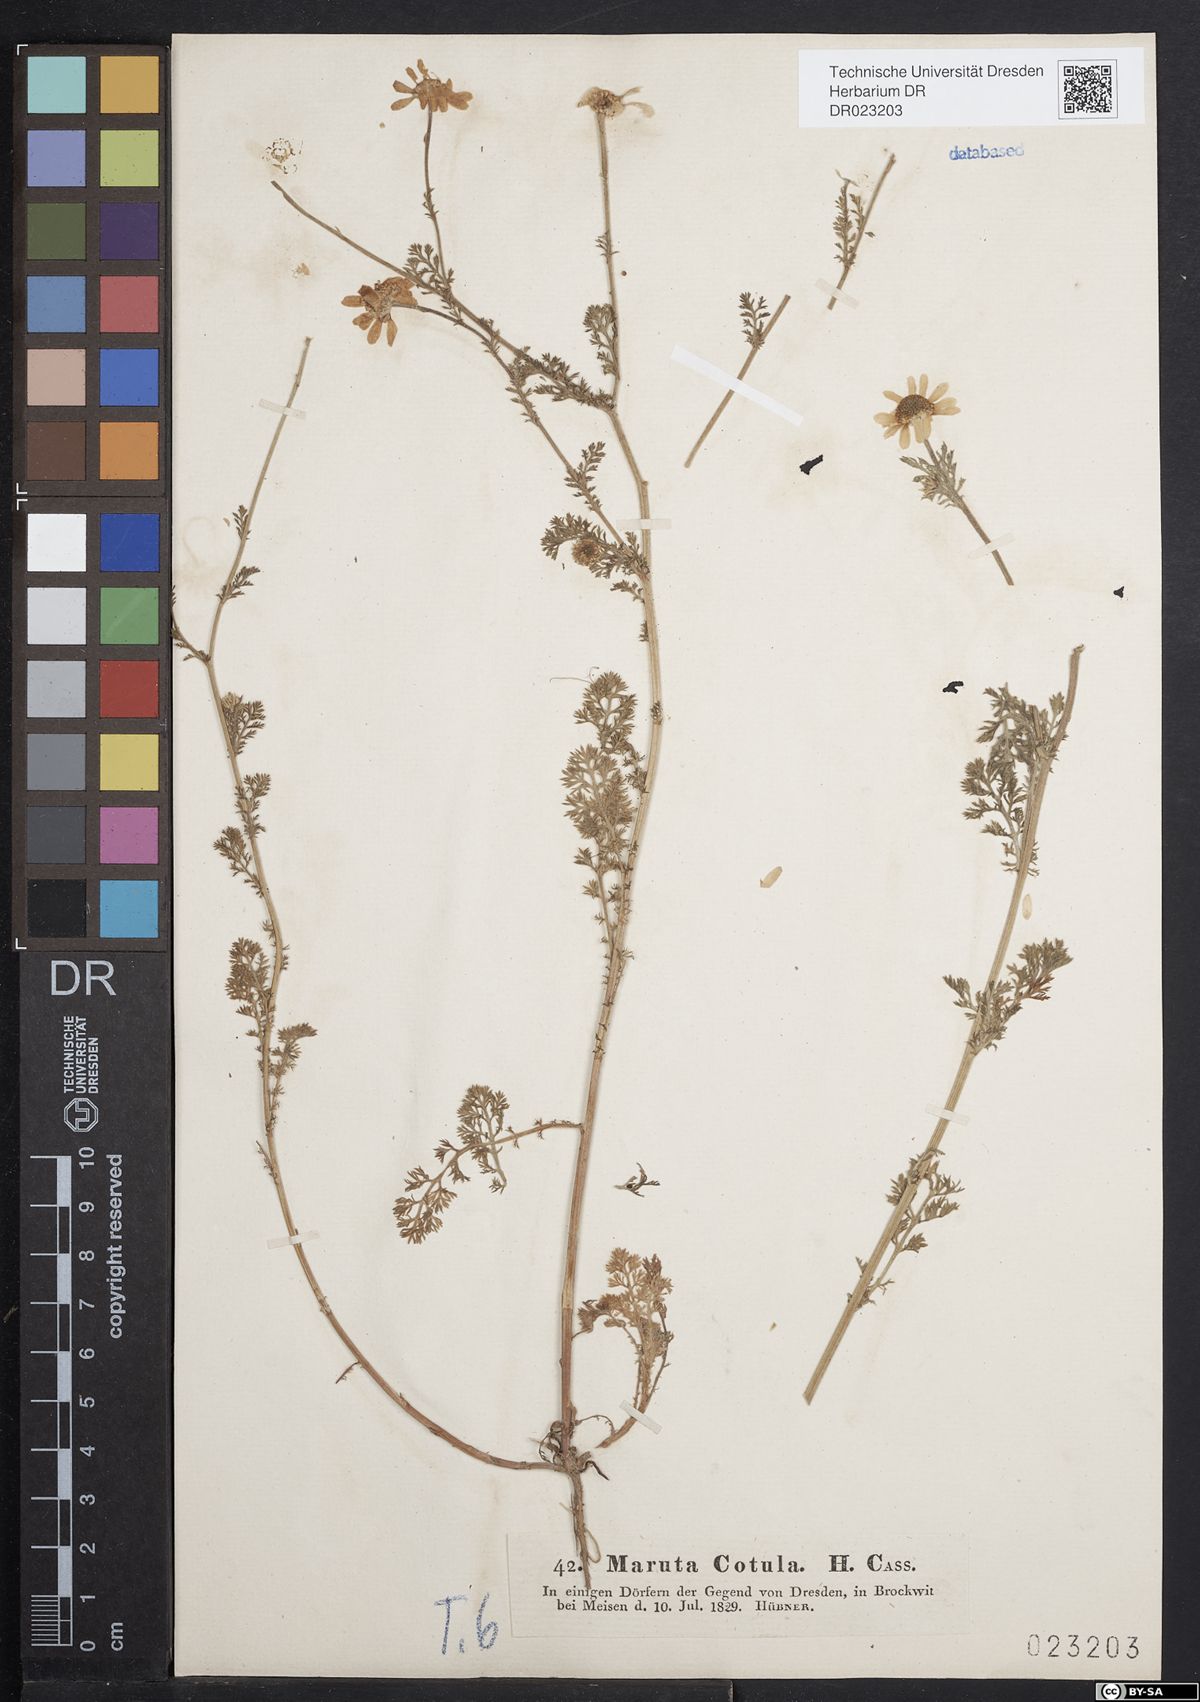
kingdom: Plantae
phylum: Tracheophyta
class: Magnoliopsida
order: Asterales
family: Asteraceae
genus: Anthemis
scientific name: Anthemis cotula
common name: Stinking chamomile
